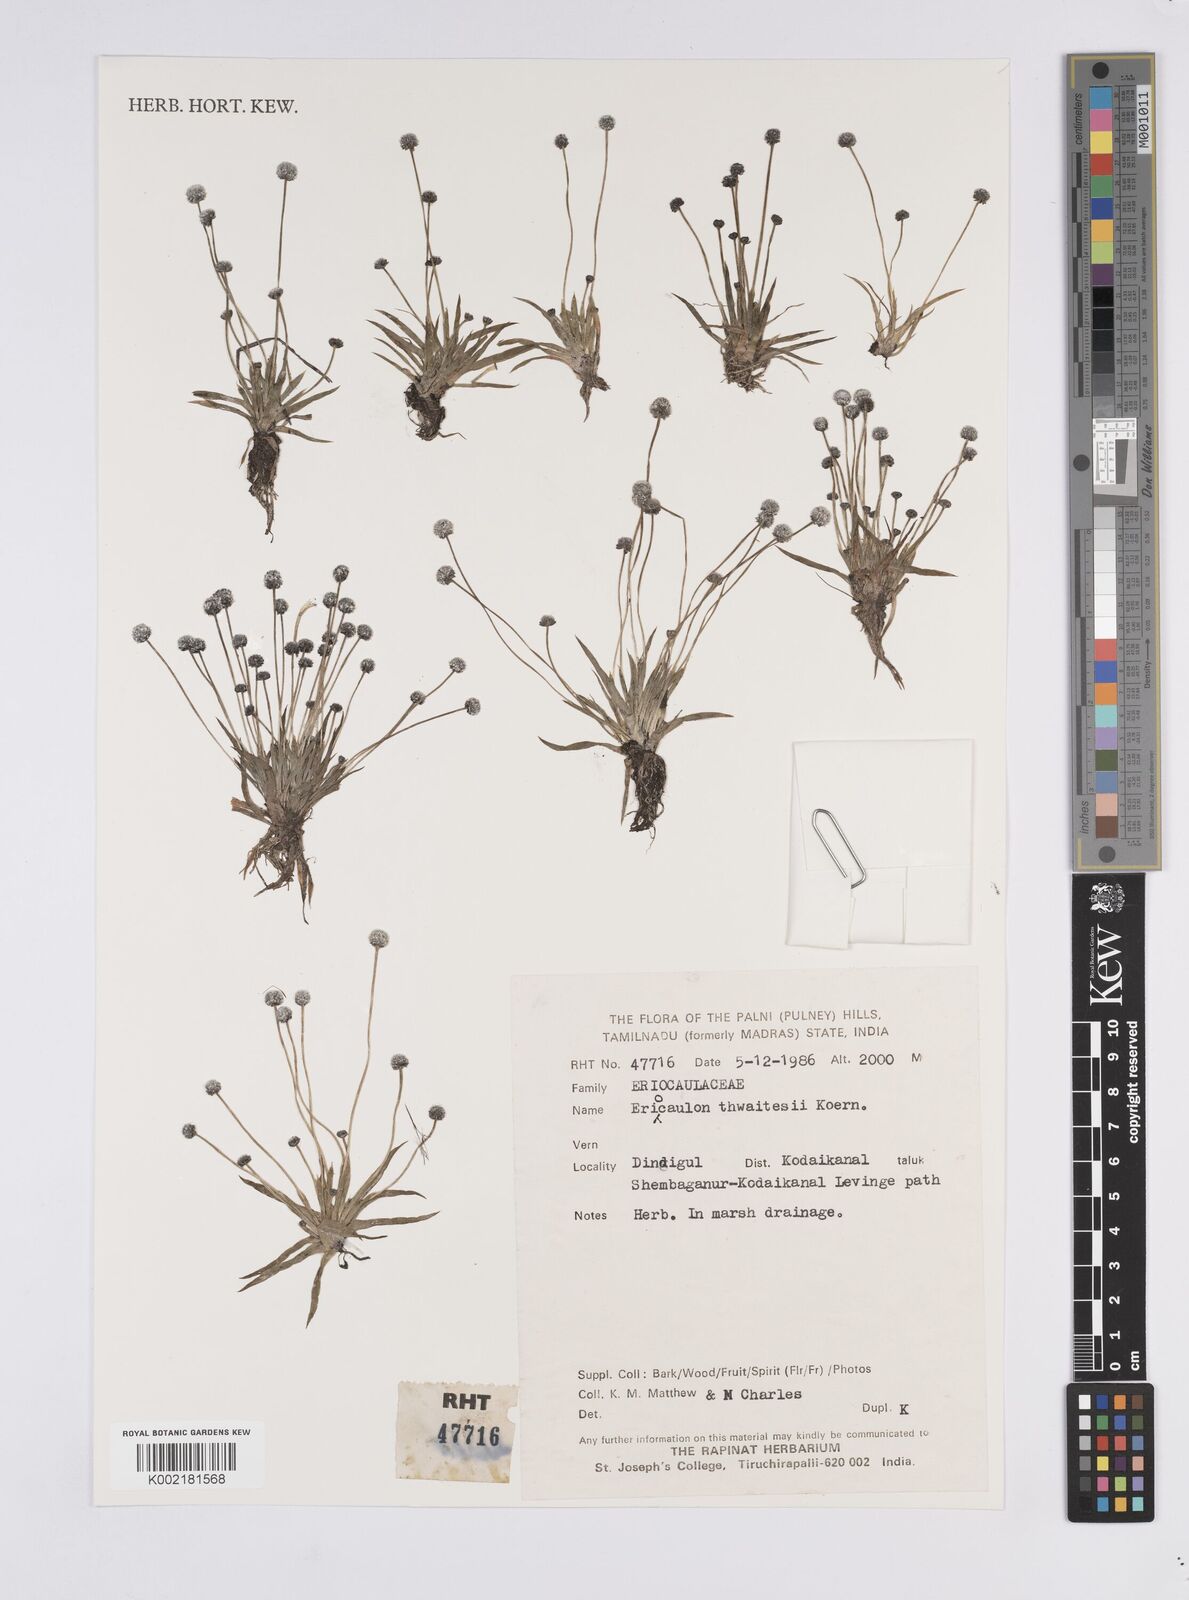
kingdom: Plantae
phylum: Tracheophyta
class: Liliopsida
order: Poales
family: Eriocaulaceae
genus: Eriocaulon
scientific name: Eriocaulon thwaitesii
